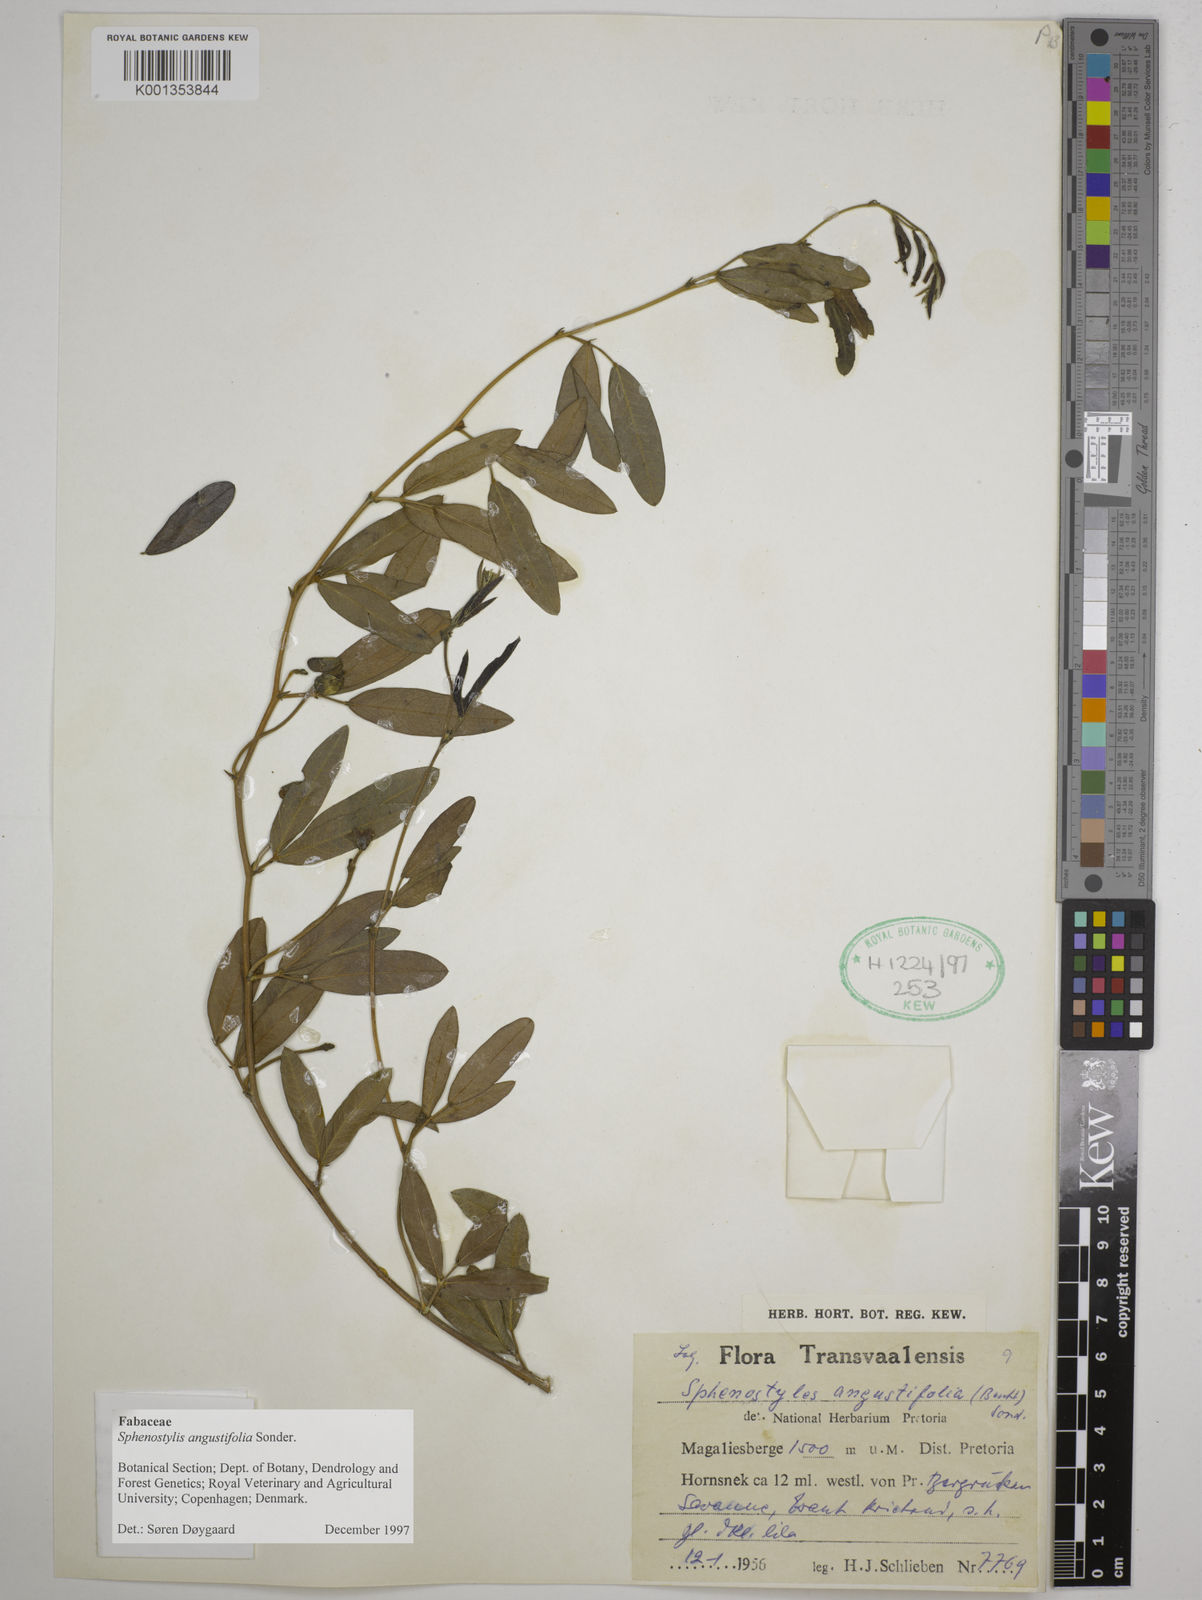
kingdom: Plantae
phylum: Tracheophyta
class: Magnoliopsida
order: Fabales
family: Fabaceae
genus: Sphenostylis
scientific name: Sphenostylis angustifolia
